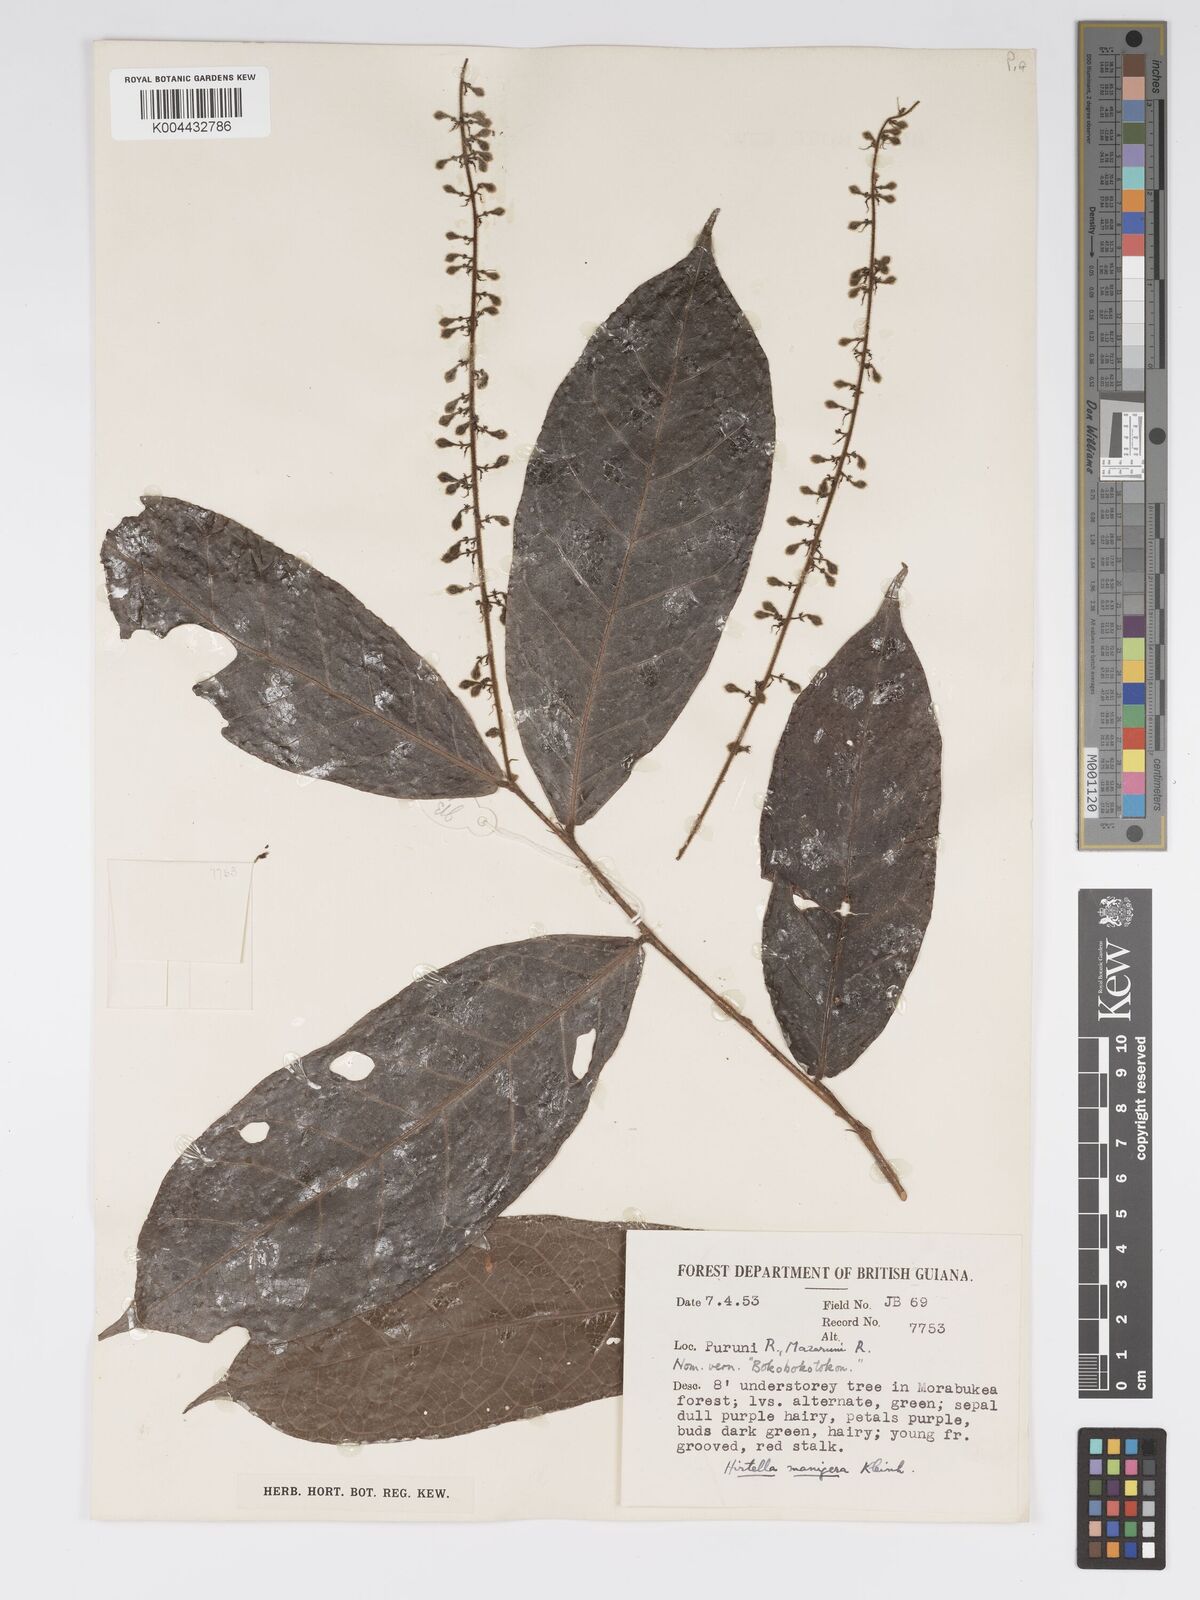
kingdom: Plantae
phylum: Tracheophyta
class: Magnoliopsida
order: Malpighiales
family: Chrysobalanaceae
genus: Hirtella
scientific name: Hirtella silicea
